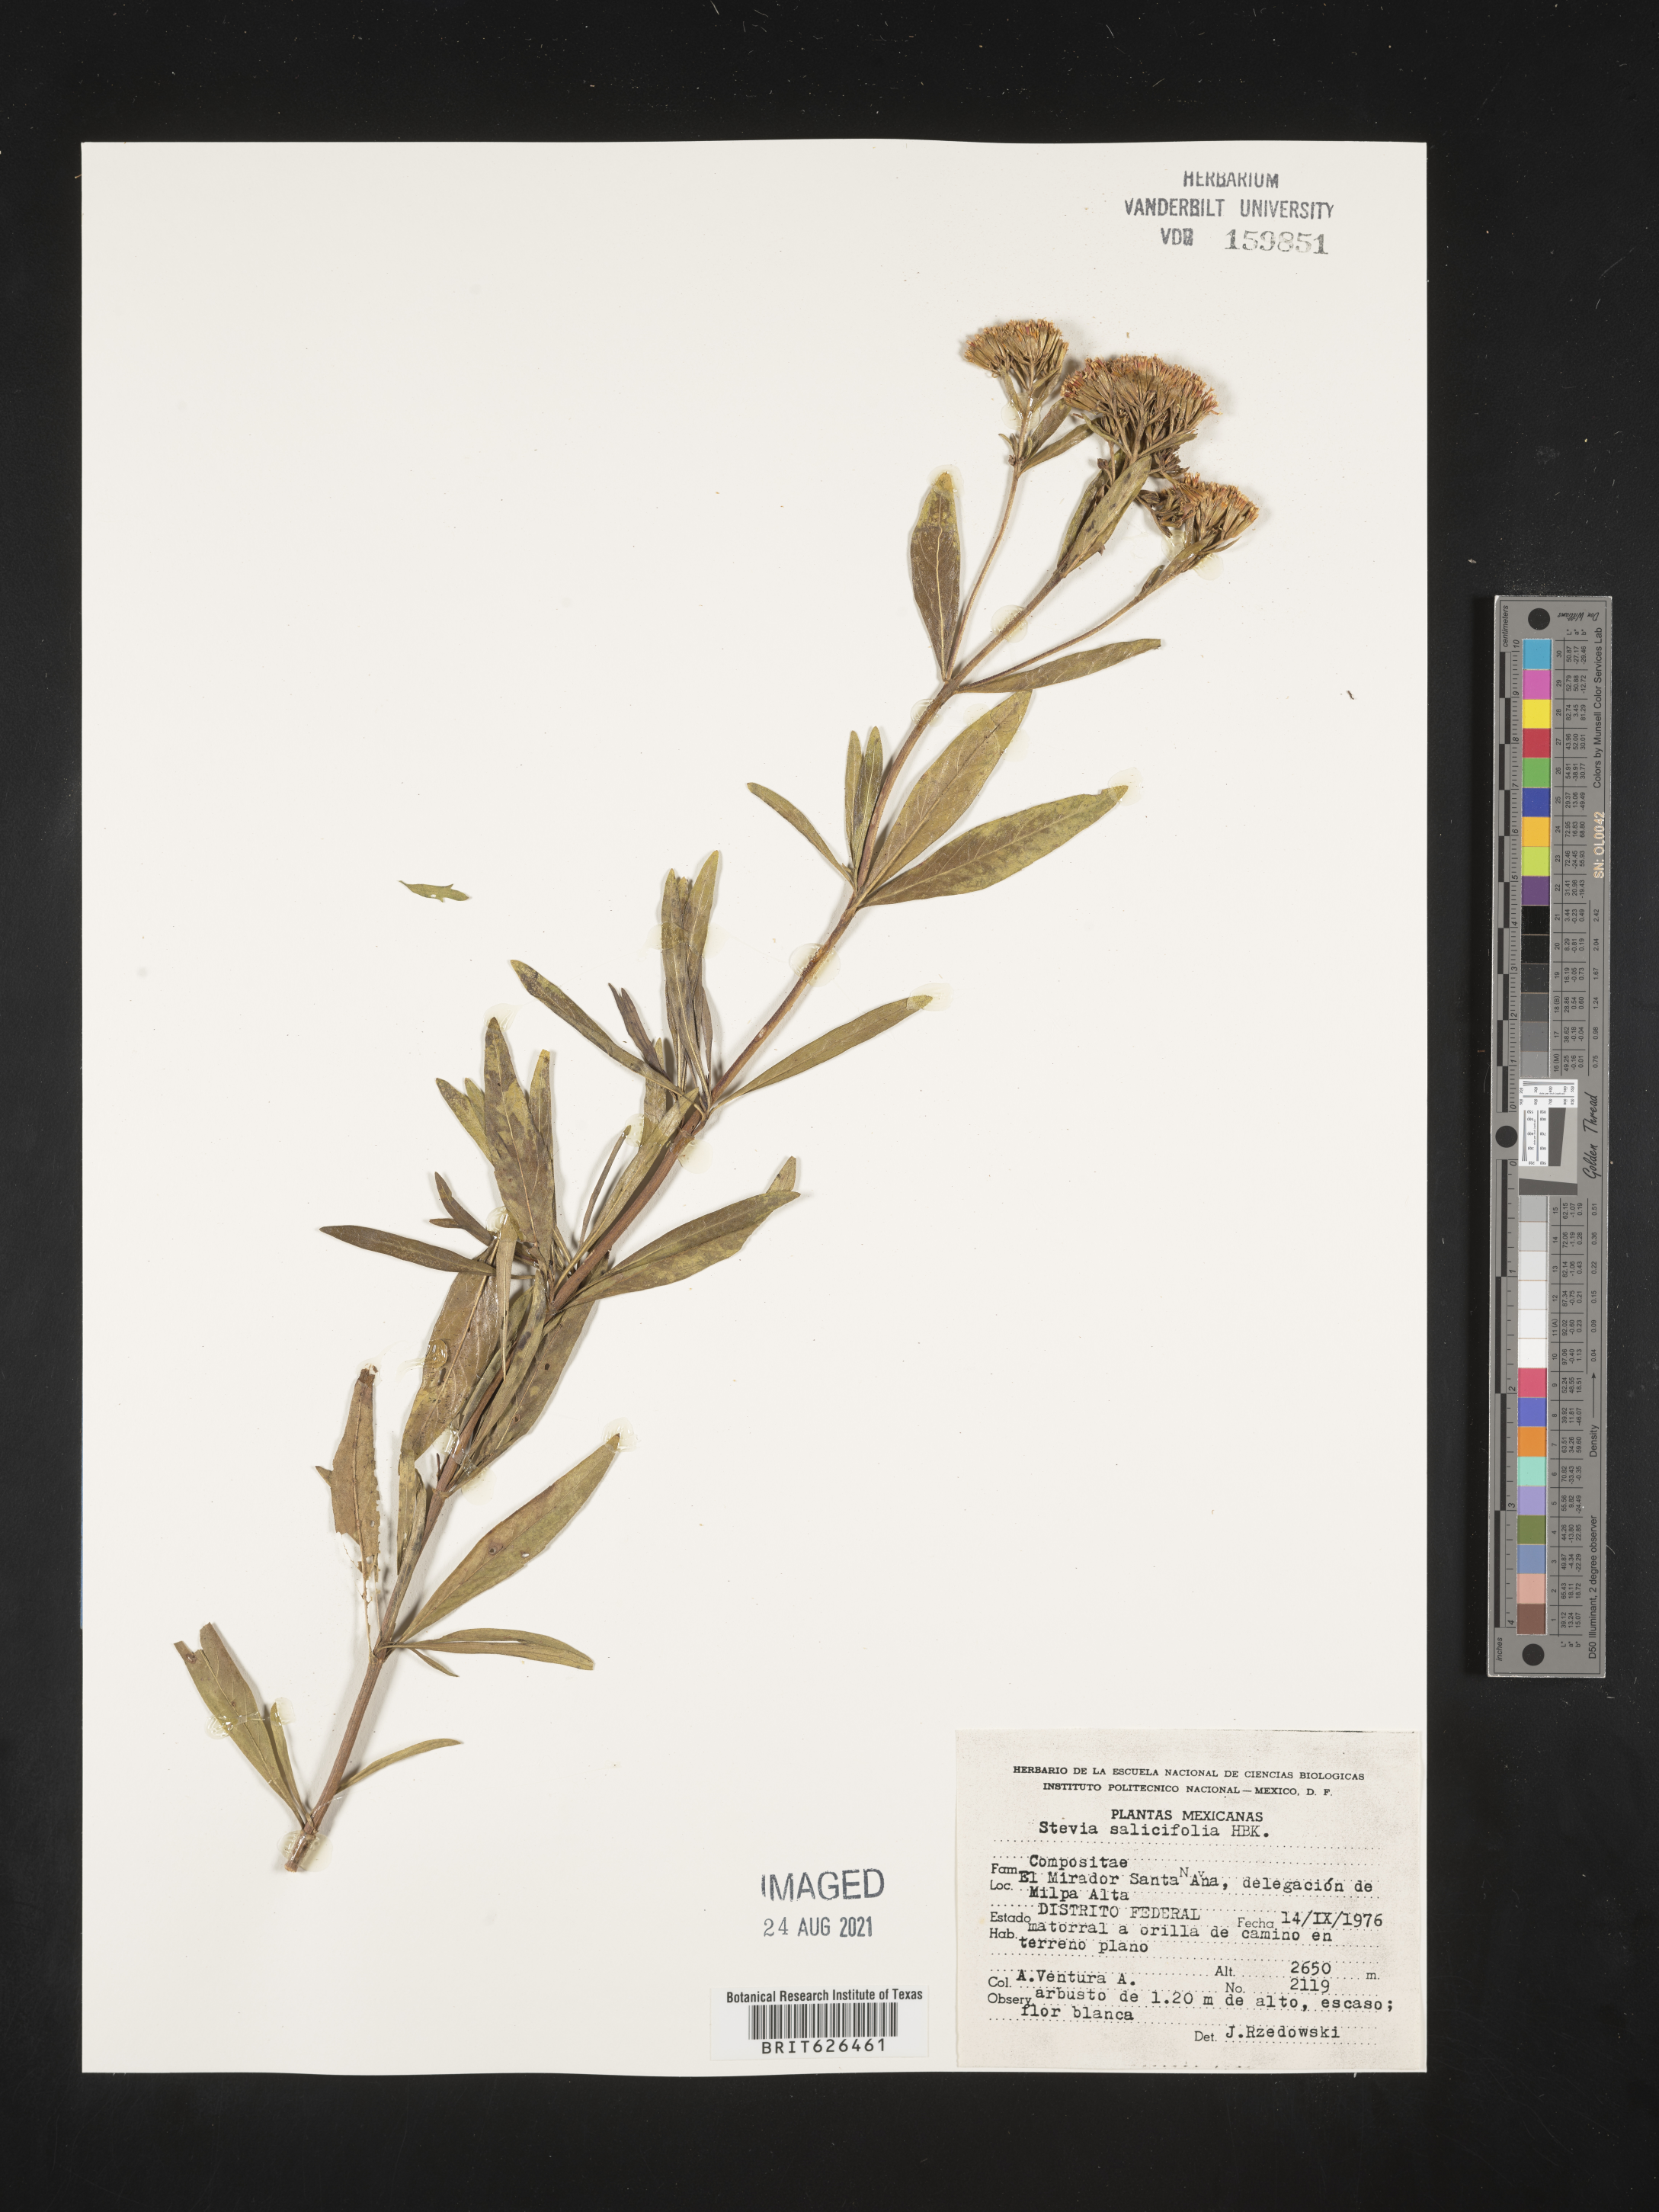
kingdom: Plantae
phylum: Tracheophyta
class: Magnoliopsida
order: Asterales
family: Asteraceae
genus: Stevia
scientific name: Stevia
